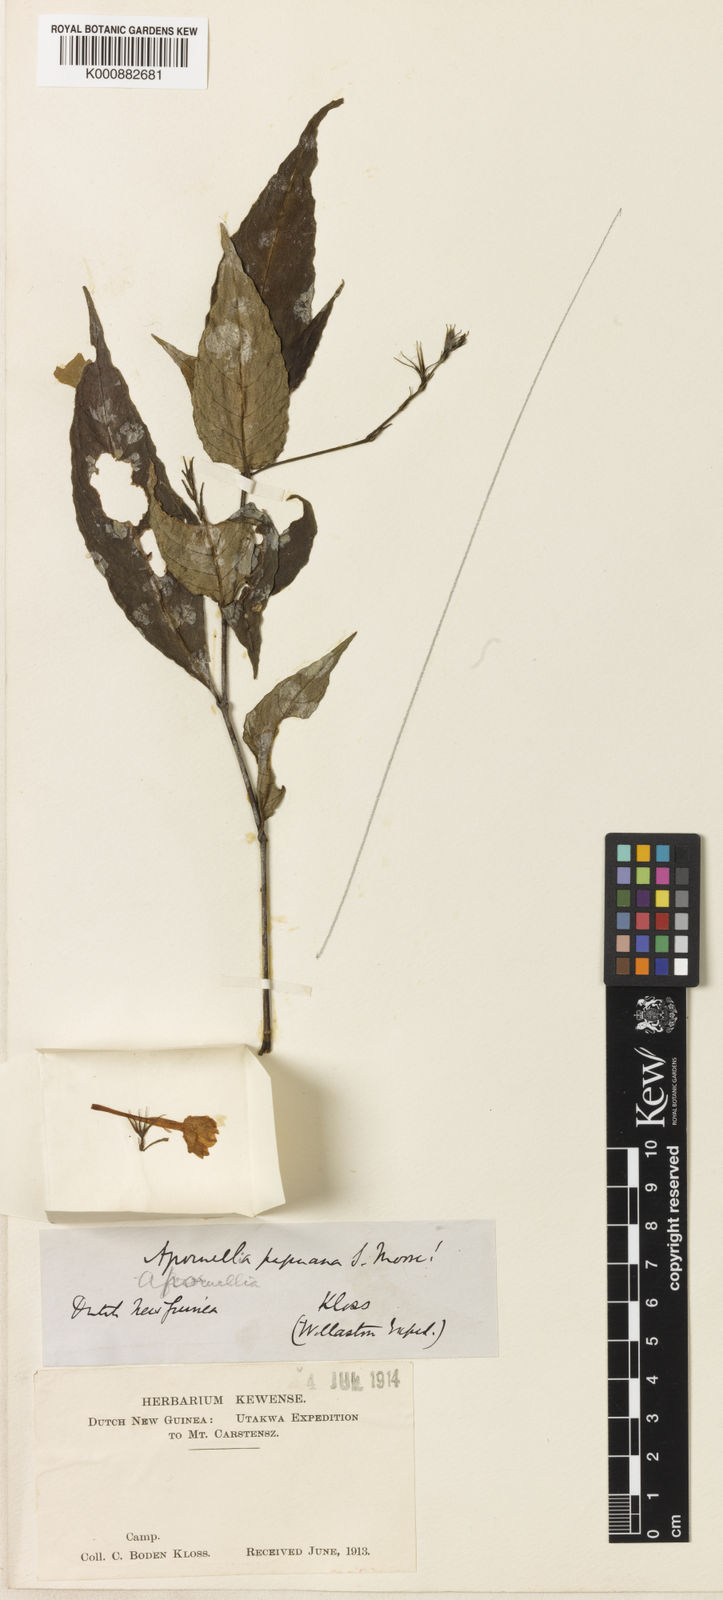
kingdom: Plantae
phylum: Tracheophyta
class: Magnoliopsida
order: Lamiales
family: Acanthaceae
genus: Leptosiphonium
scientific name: Leptosiphonium papuanum
